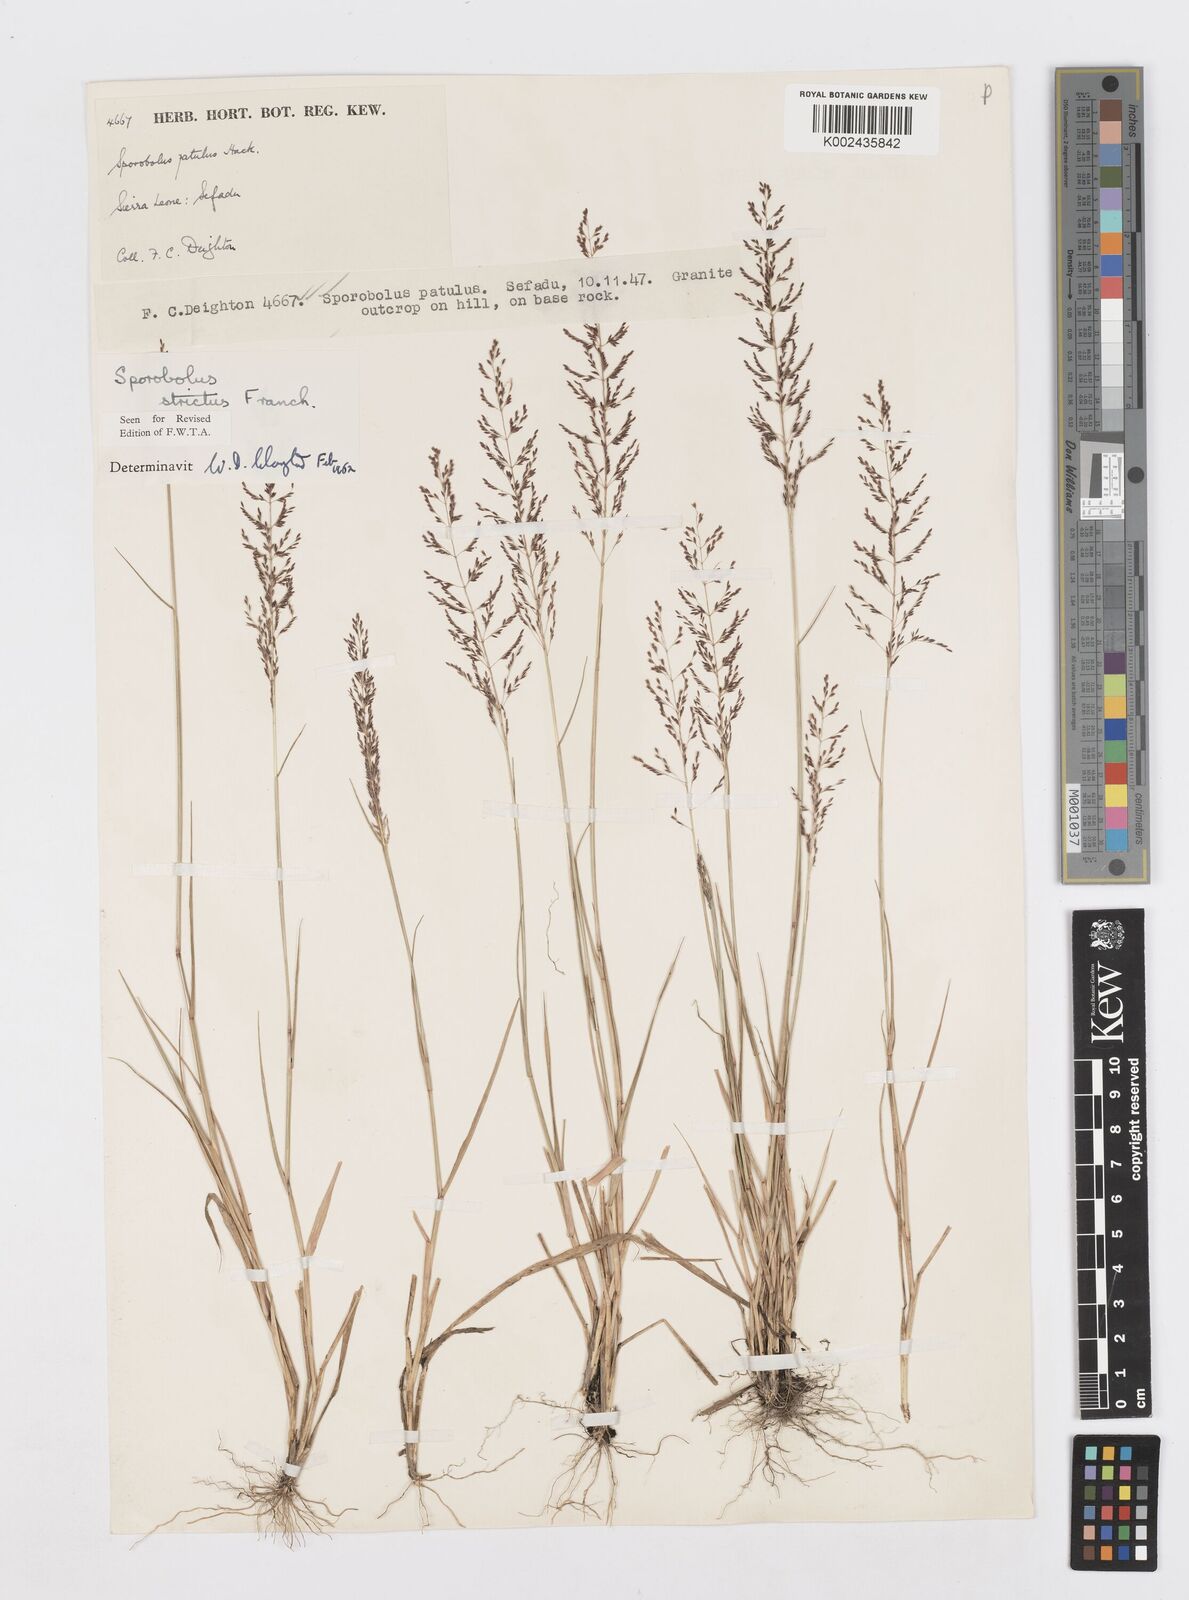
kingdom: Plantae
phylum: Tracheophyta
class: Liliopsida
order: Poales
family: Poaceae
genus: Sporobolus
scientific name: Sporobolus paniculatus
